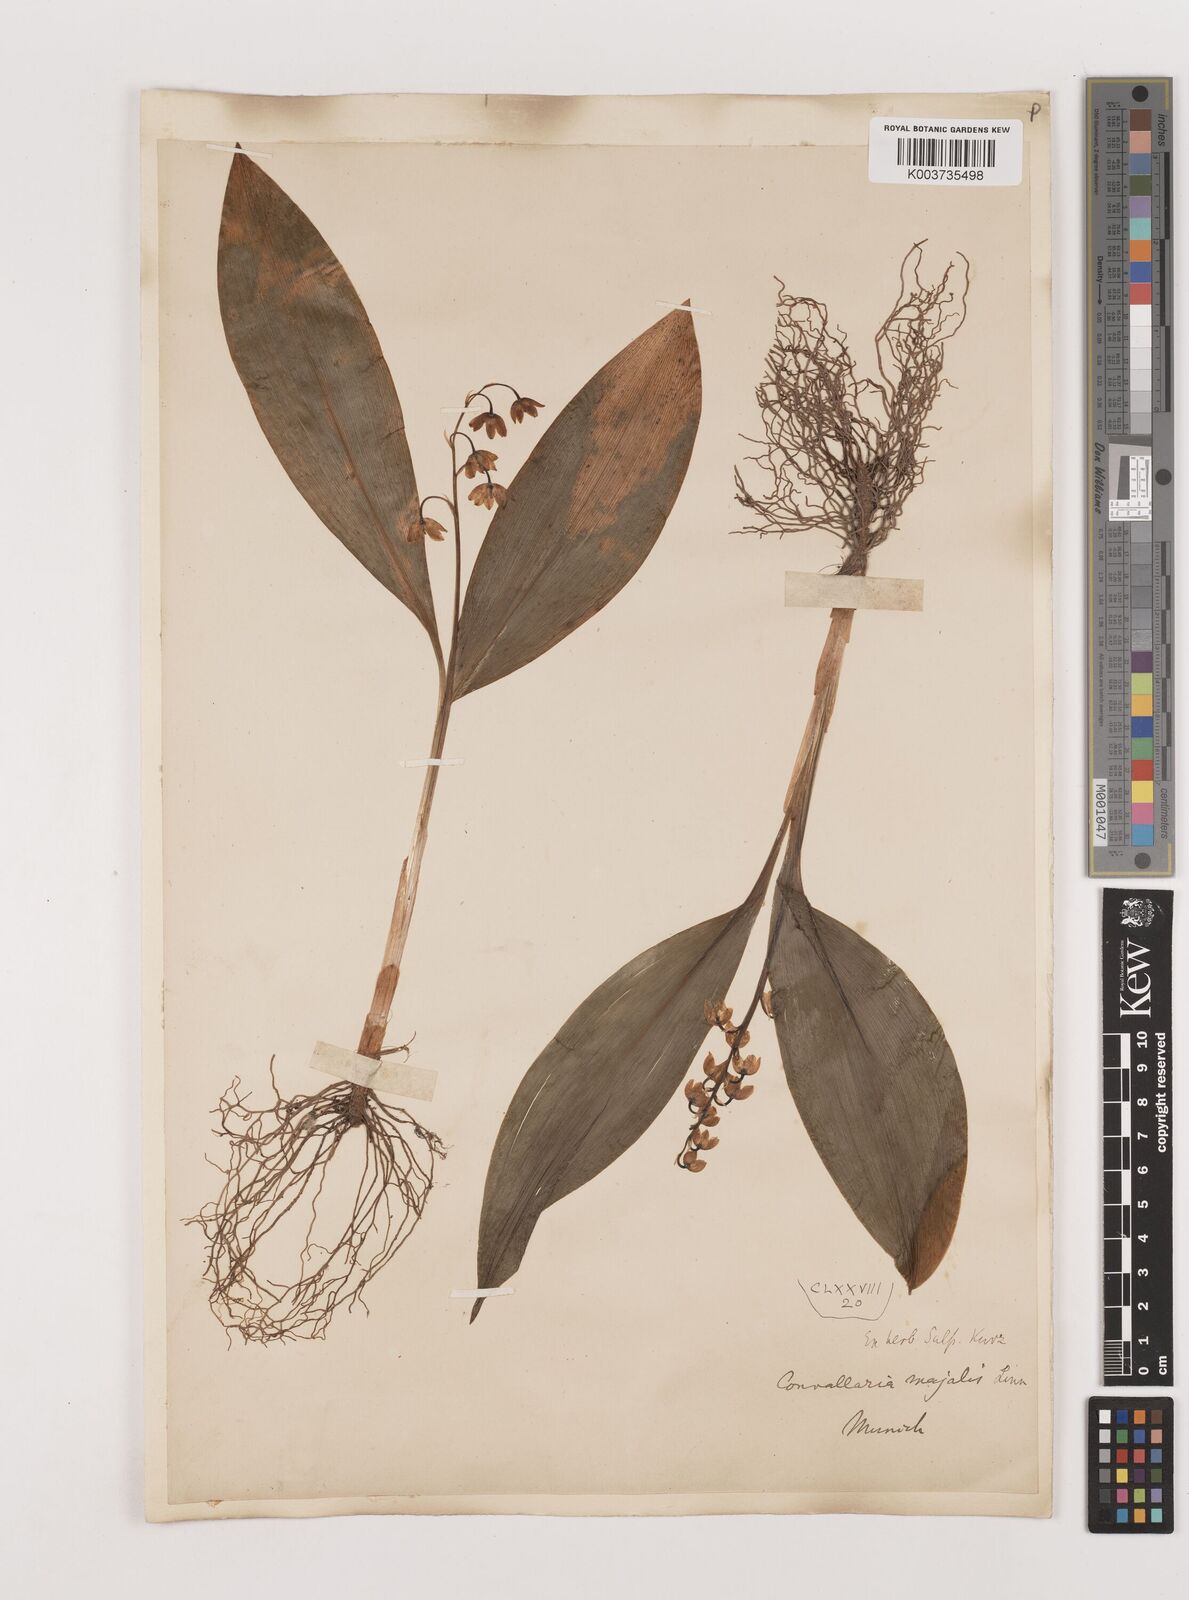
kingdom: Plantae
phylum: Tracheophyta
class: Liliopsida
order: Asparagales
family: Asparagaceae
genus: Convallaria
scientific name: Convallaria majalis
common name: Lily-of-the-valley
